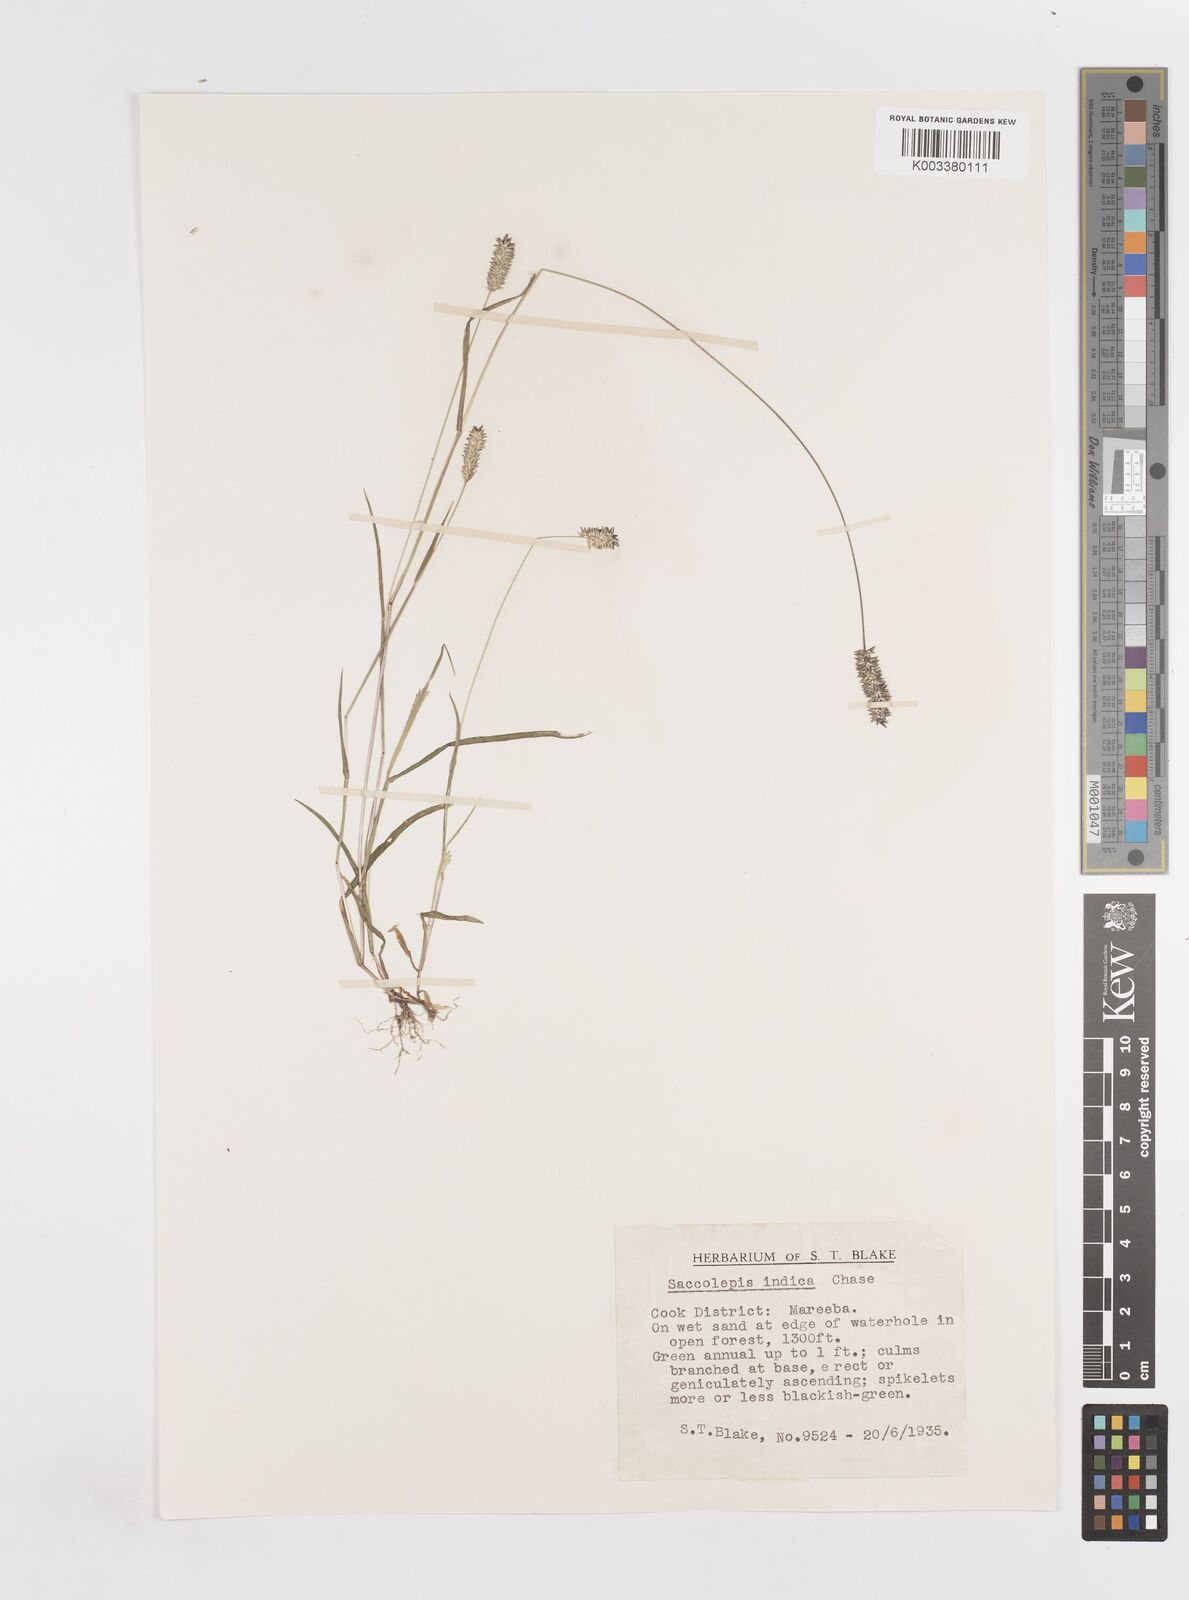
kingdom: Plantae
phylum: Tracheophyta
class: Liliopsida
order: Poales
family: Poaceae
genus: Sacciolepis
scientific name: Sacciolepis indica
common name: Glenwoodgrass
